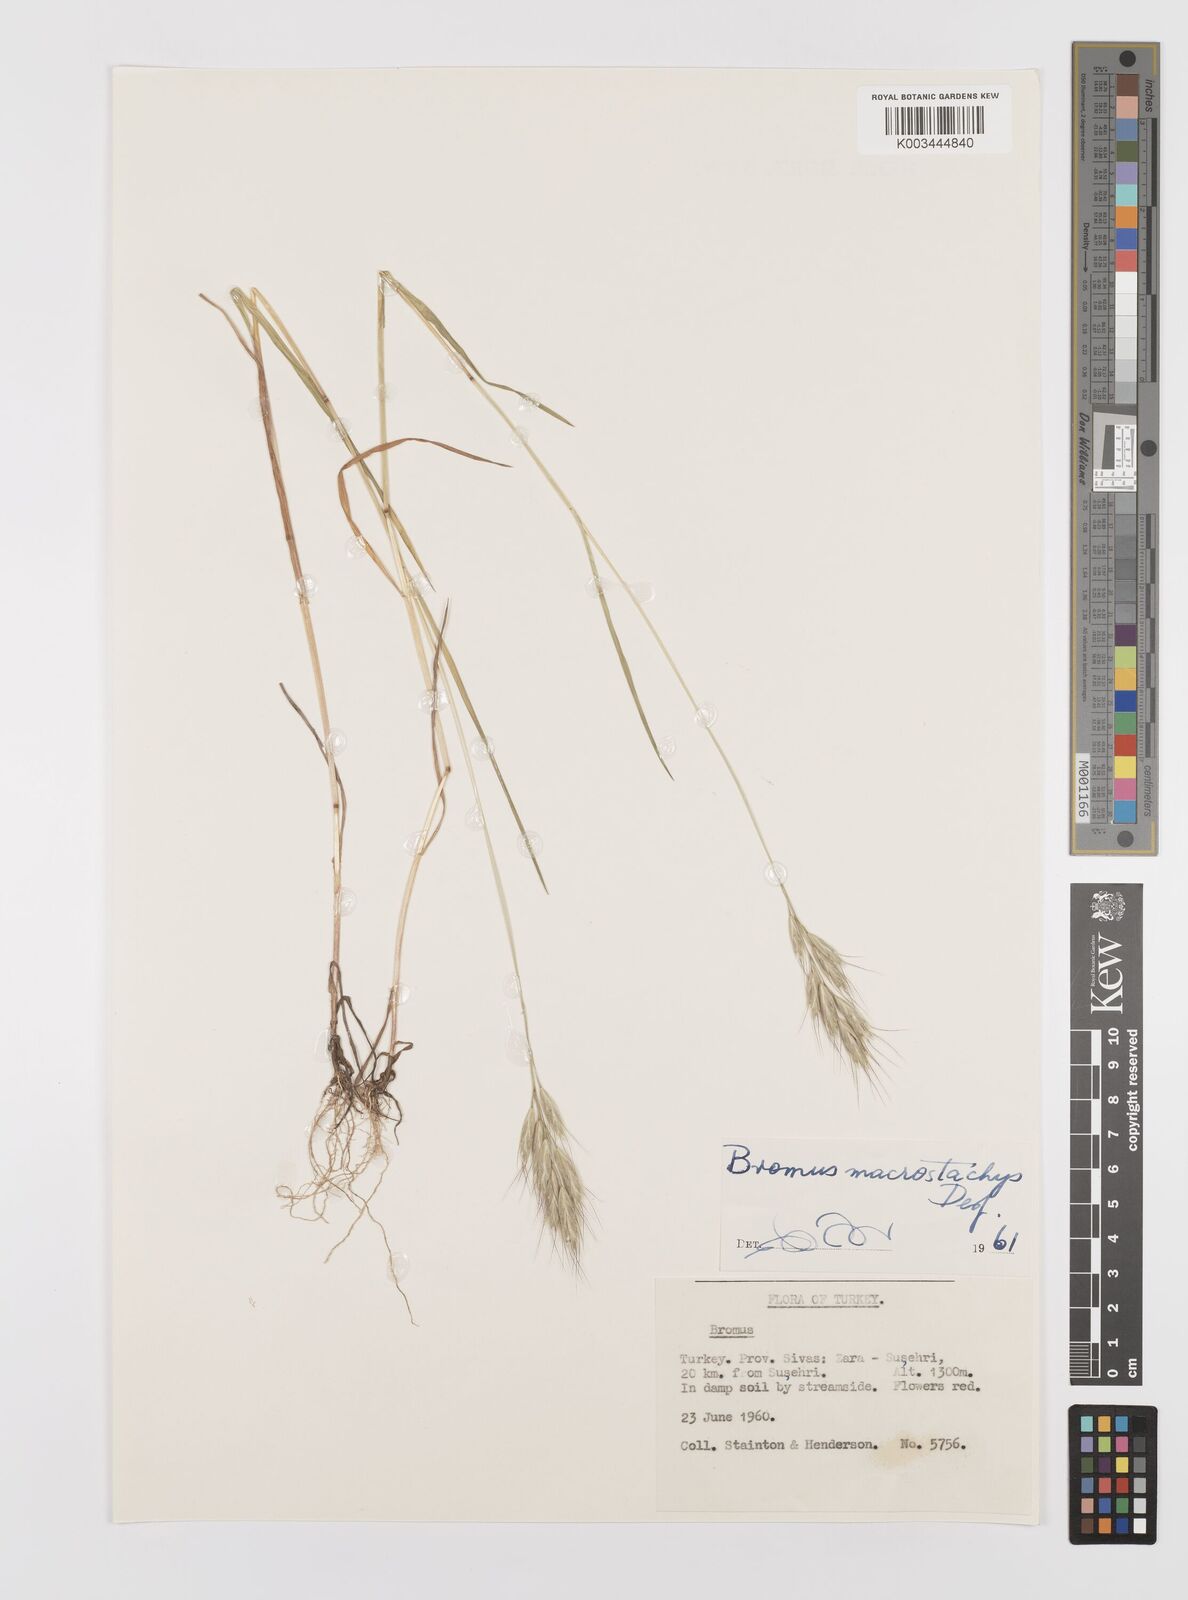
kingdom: Plantae
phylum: Tracheophyta
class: Liliopsida
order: Poales
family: Poaceae
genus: Bromus
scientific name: Bromus lanceolatus
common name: Mediterranean brome
